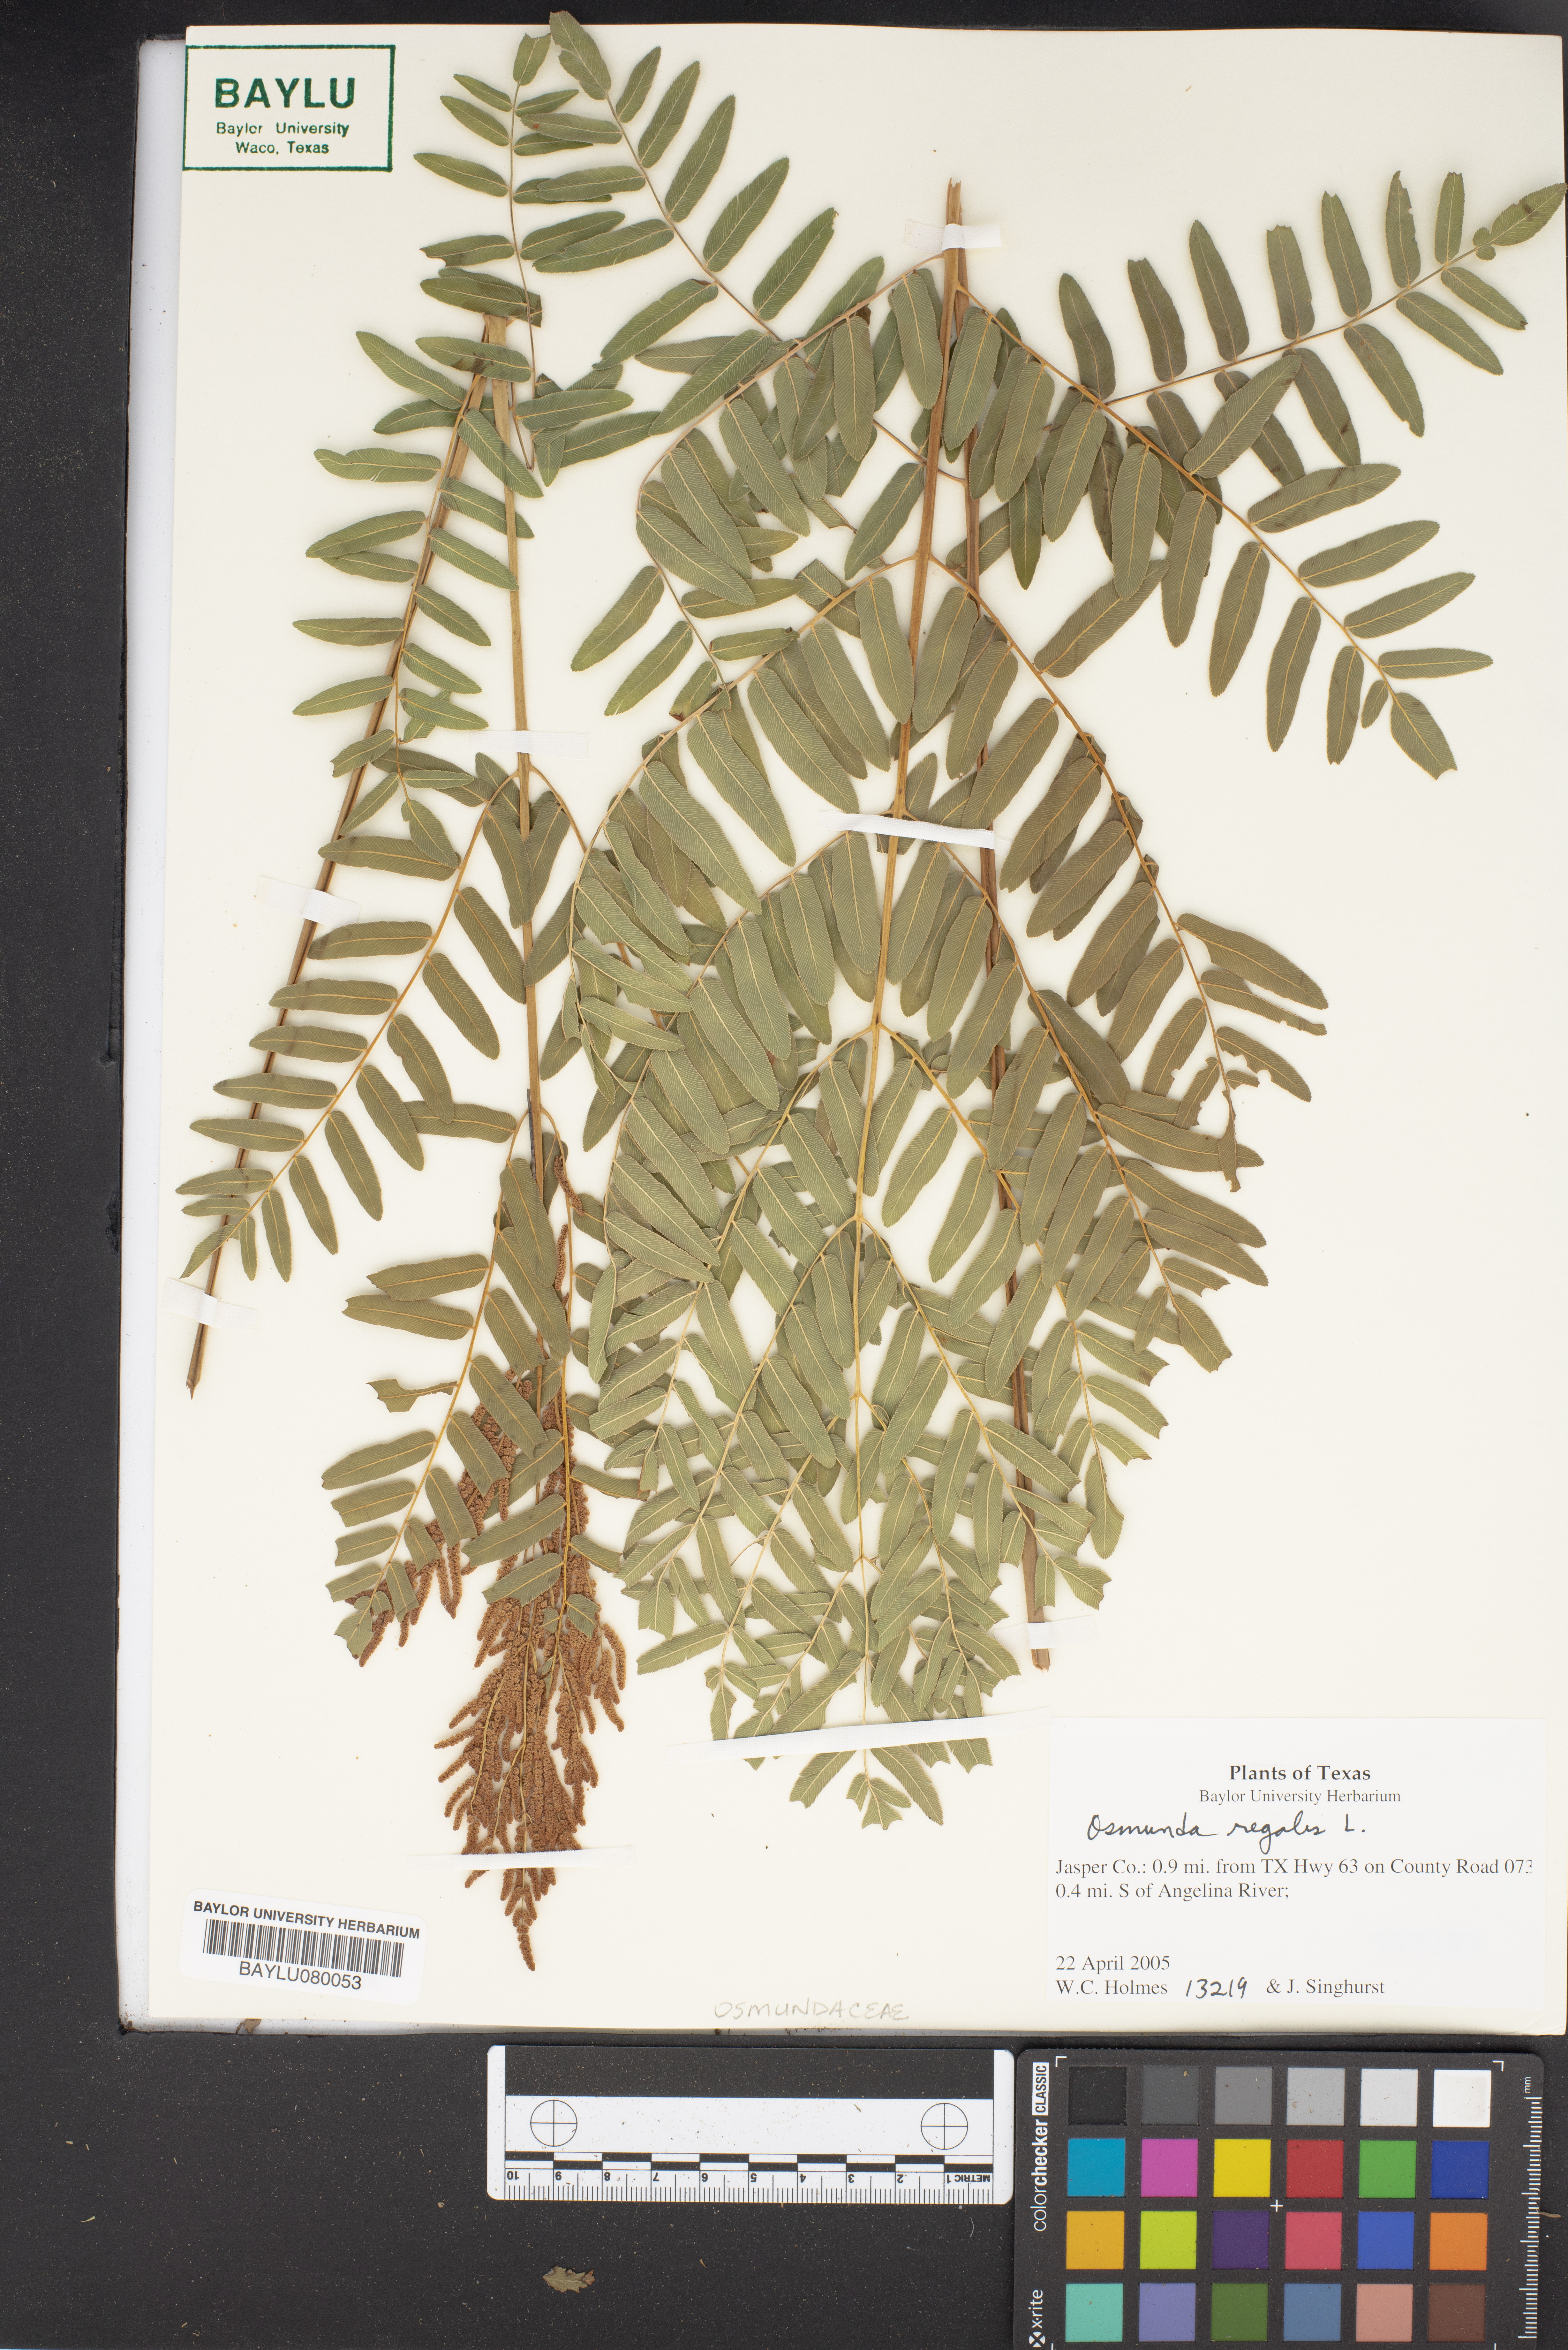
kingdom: Plantae
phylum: Tracheophyta
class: Polypodiopsida
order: Osmundales
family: Osmundaceae
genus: Osmunda
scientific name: Osmunda regalis
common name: Royal fern
